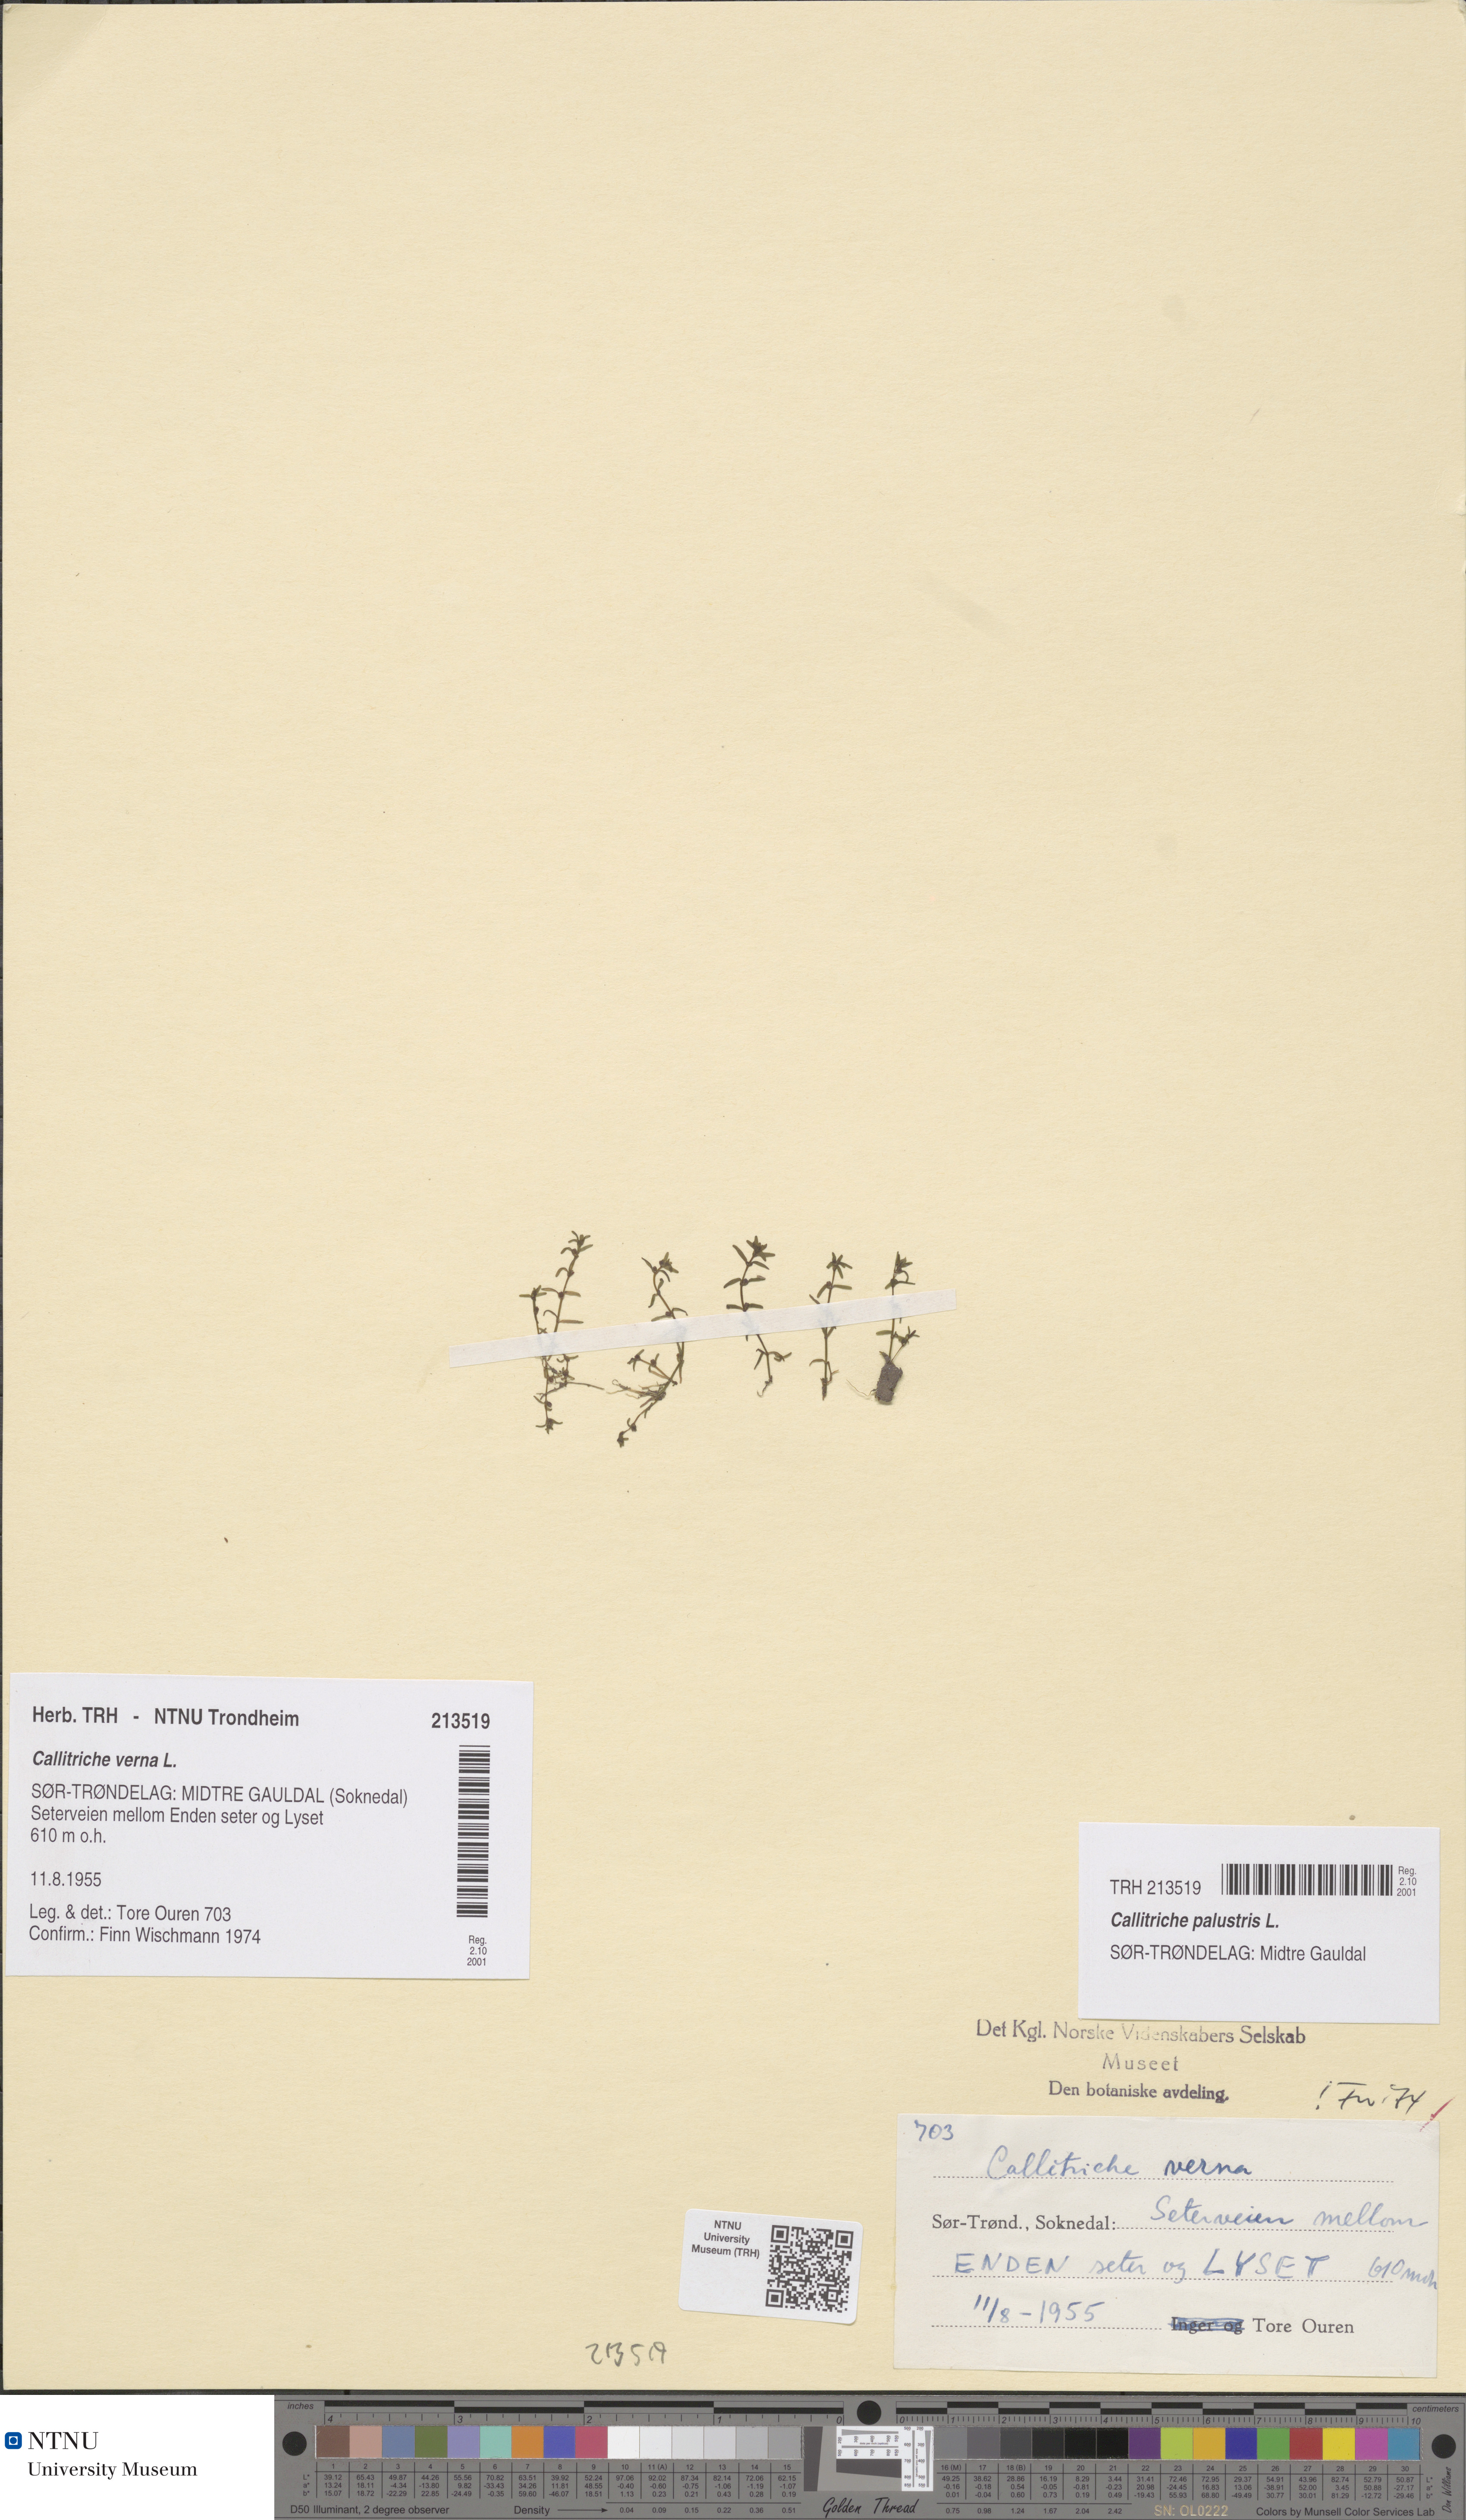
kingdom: Plantae
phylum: Tracheophyta
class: Magnoliopsida
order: Lamiales
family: Plantaginaceae
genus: Callitriche
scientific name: Callitriche palustris
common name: Spring water-starwort
